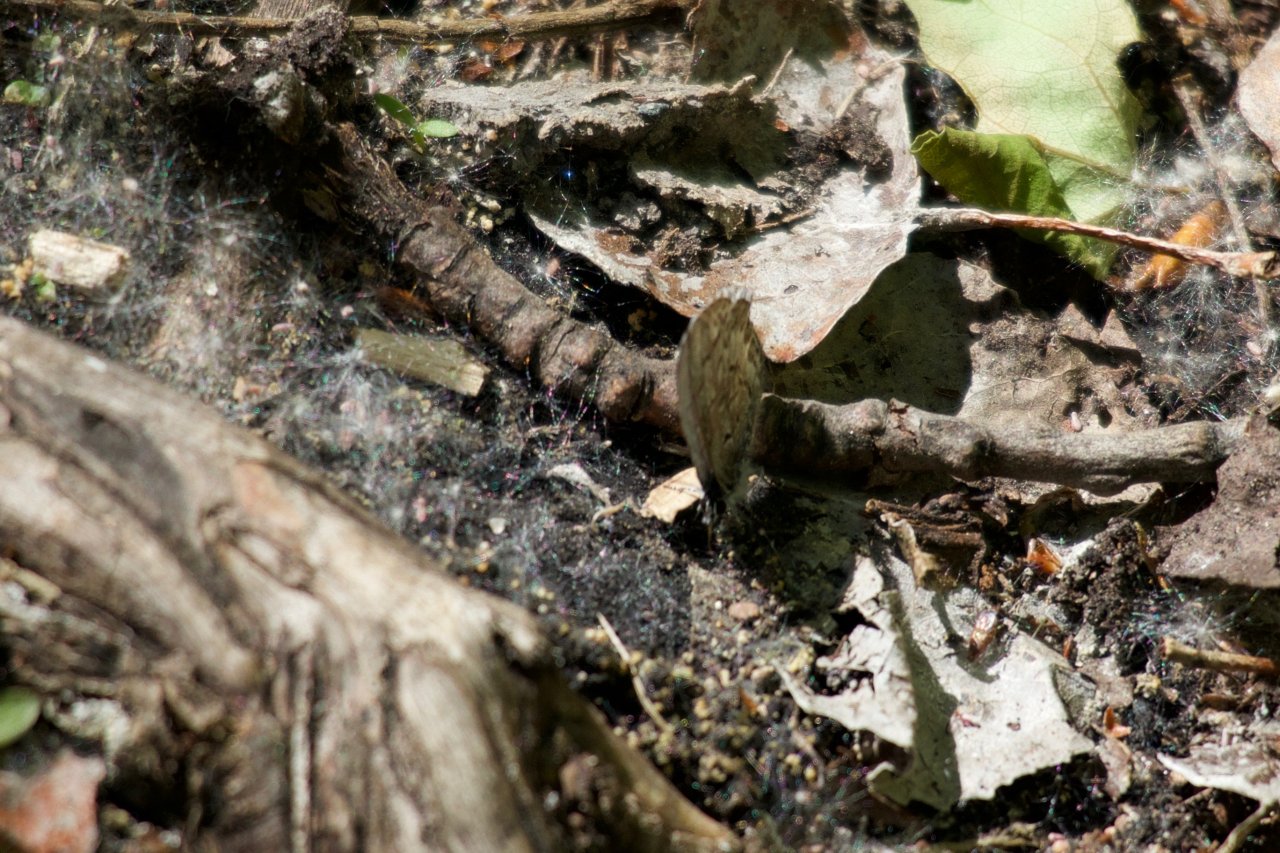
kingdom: Animalia
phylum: Arthropoda
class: Insecta
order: Lepidoptera
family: Lycaenidae
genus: Celastrina
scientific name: Celastrina lucia
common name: Northern Spring Azure
